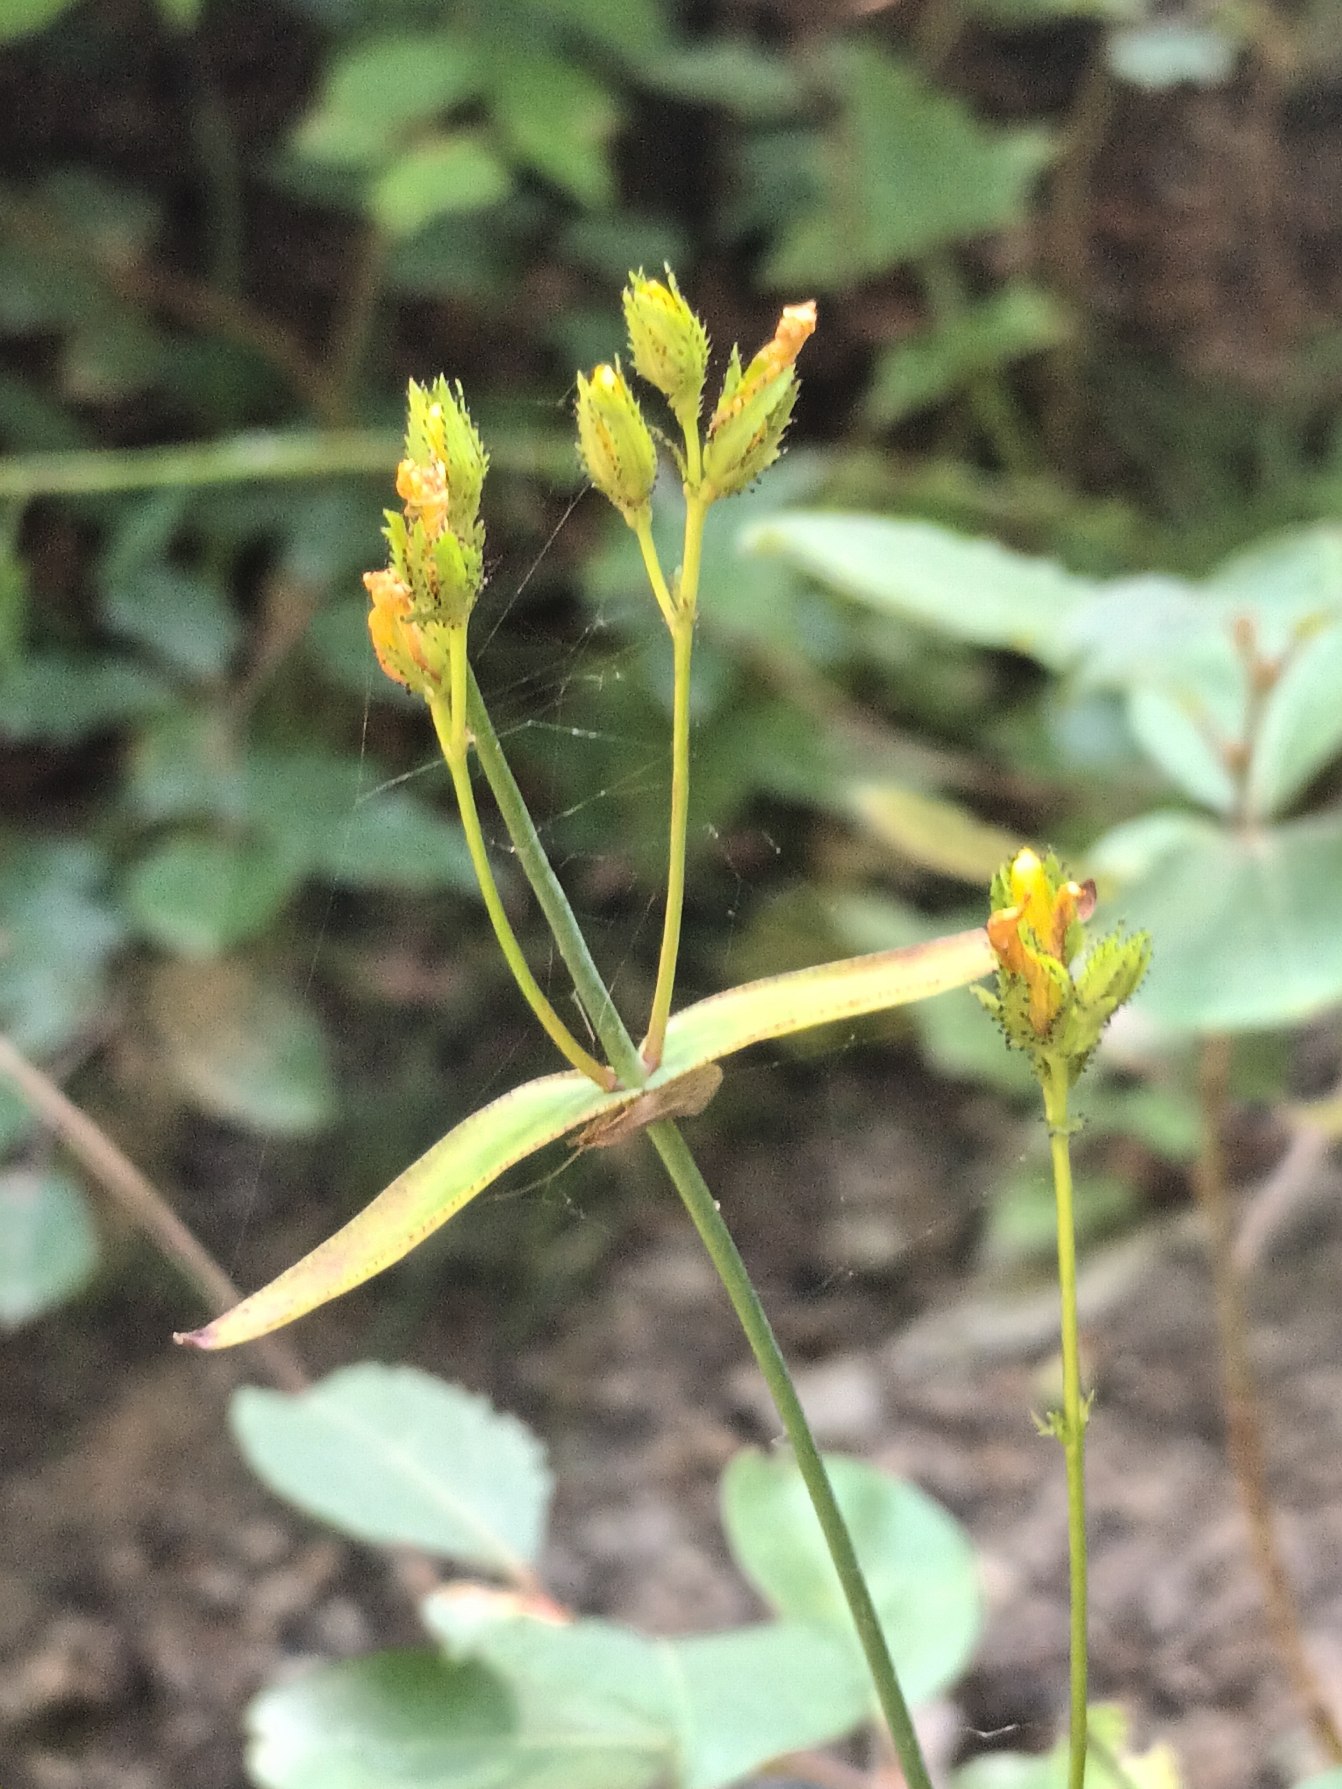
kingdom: Plantae
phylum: Tracheophyta
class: Magnoliopsida
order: Malpighiales
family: Hypericaceae
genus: Hypericum
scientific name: Hypericum montanum
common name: Bjerg-perikon
